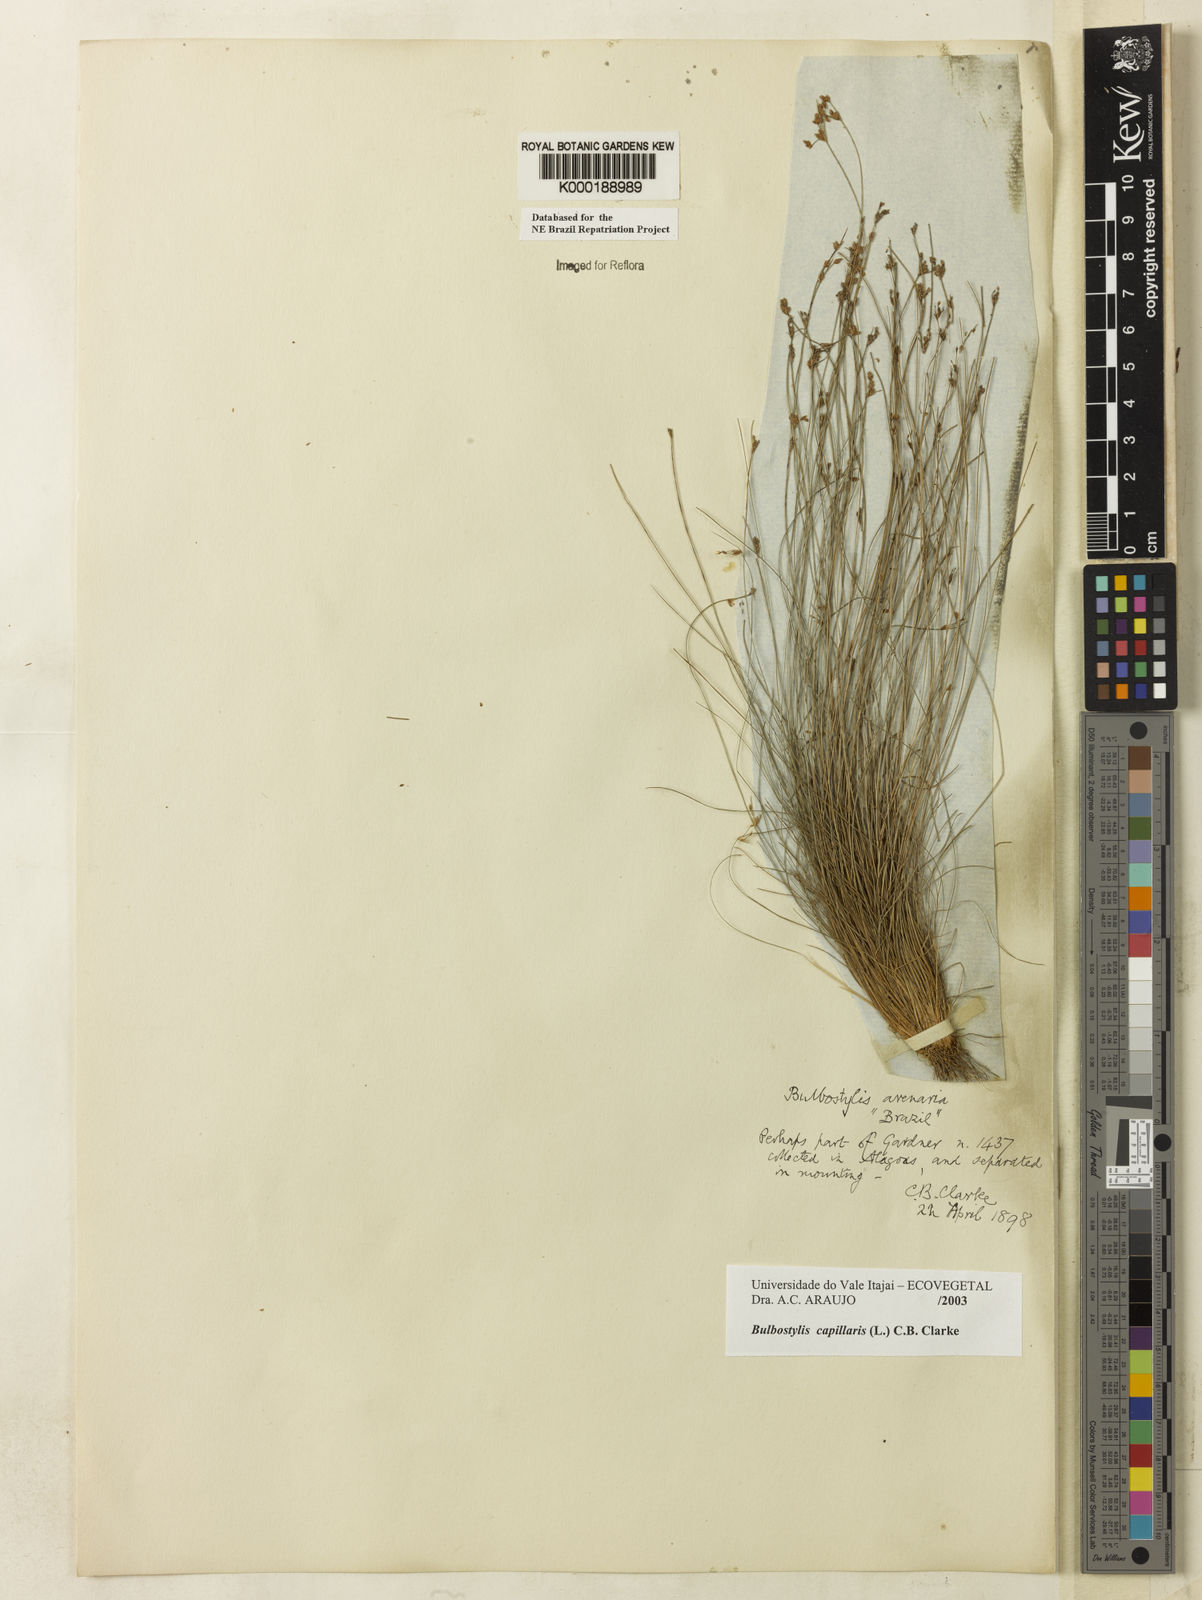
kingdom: Plantae
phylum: Tracheophyta
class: Liliopsida
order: Poales
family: Cyperaceae
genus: Bulbostylis
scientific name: Bulbostylis capillaris
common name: Densetuft hairsedge
